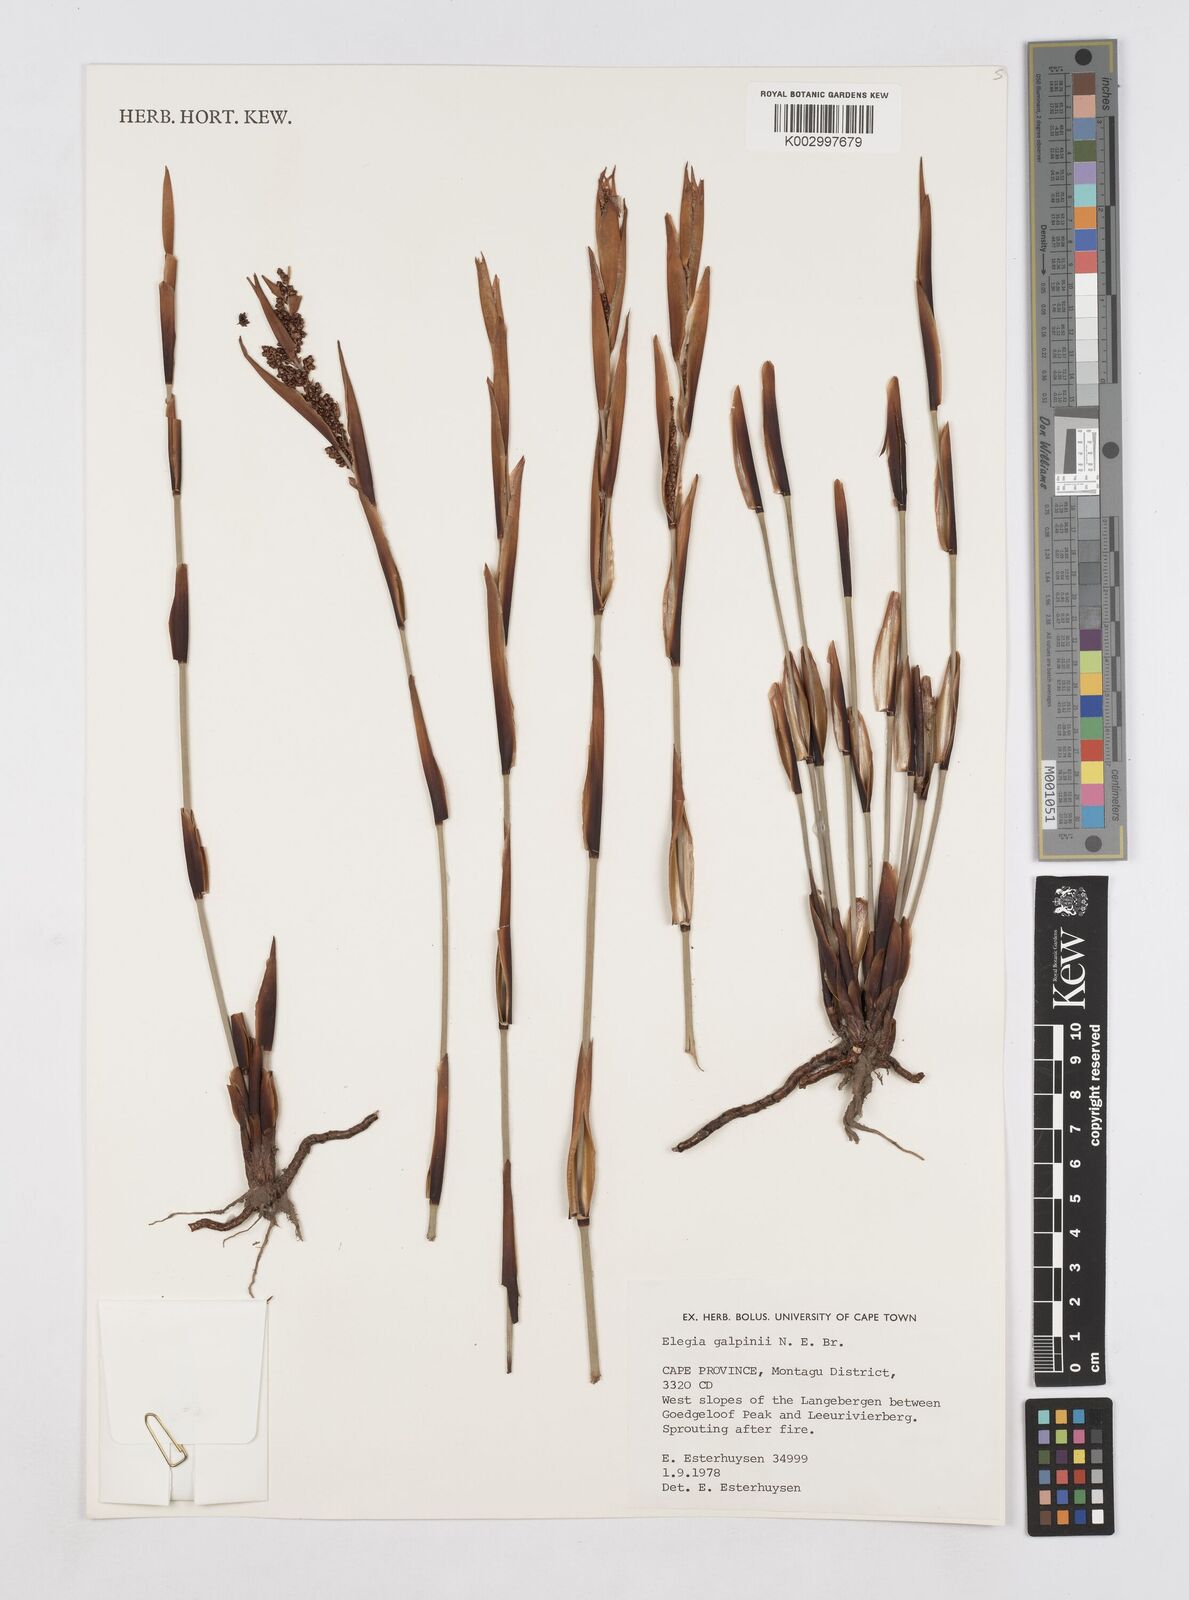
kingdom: Plantae
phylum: Tracheophyta
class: Liliopsida
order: Poales
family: Restionaceae
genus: Elegia
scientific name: Elegia galpinii
